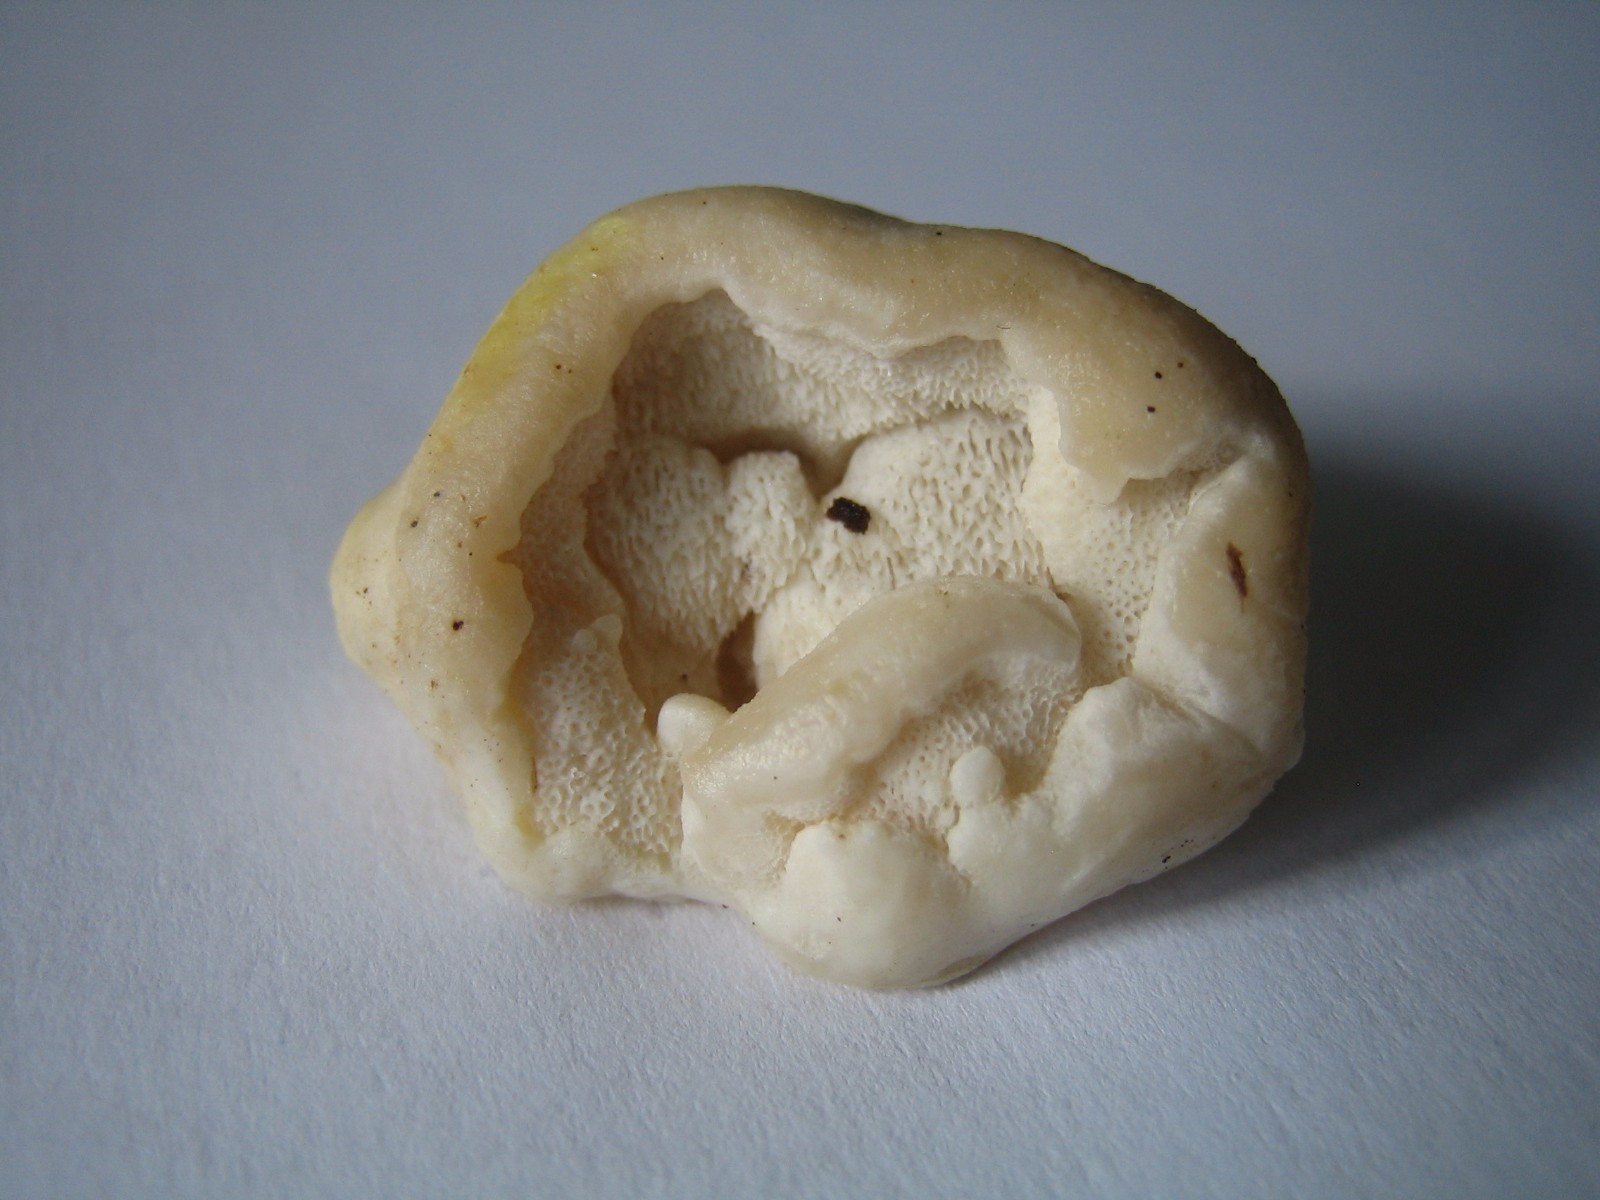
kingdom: Fungi
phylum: Basidiomycota
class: Agaricomycetes
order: Polyporales
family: Incrustoporiaceae
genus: Tyromyces
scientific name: Tyromyces lacteus
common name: mælkehvid kødporesvamp
